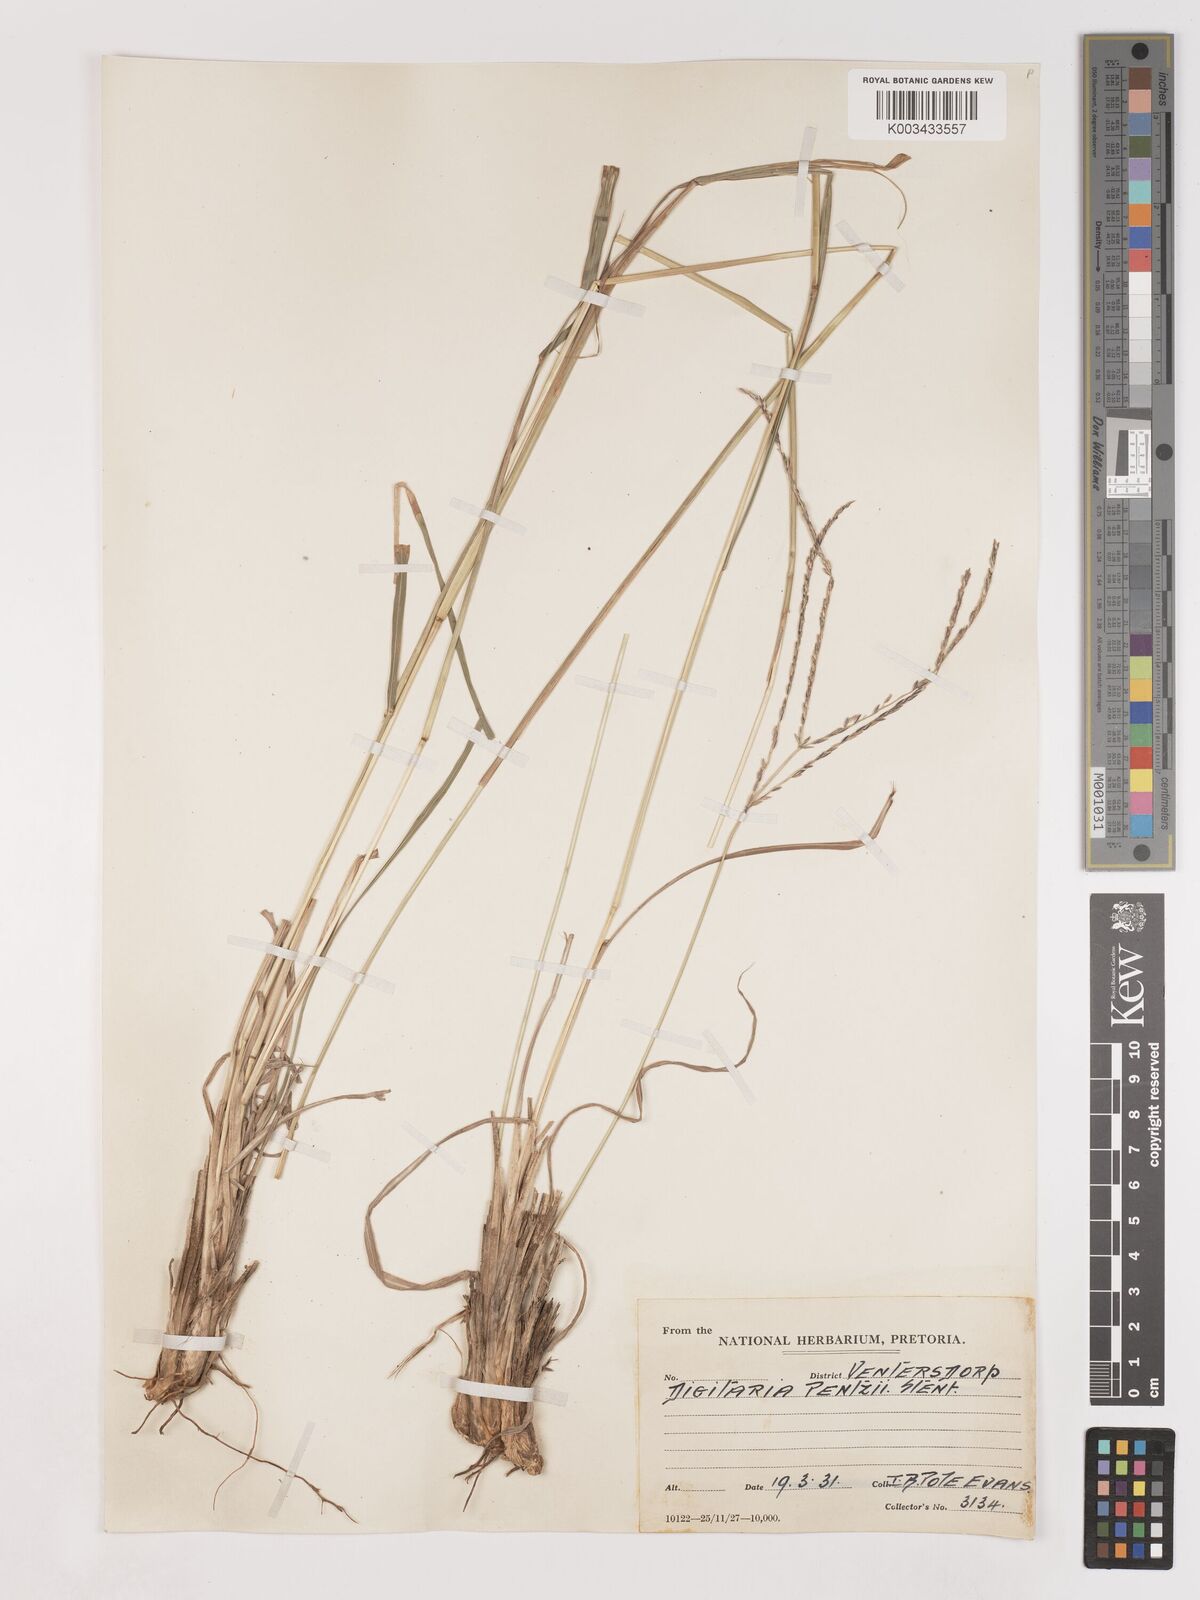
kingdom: Plantae
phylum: Tracheophyta
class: Liliopsida
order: Poales
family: Poaceae
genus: Digitaria
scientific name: Digitaria eriantha
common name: Digitgrass
